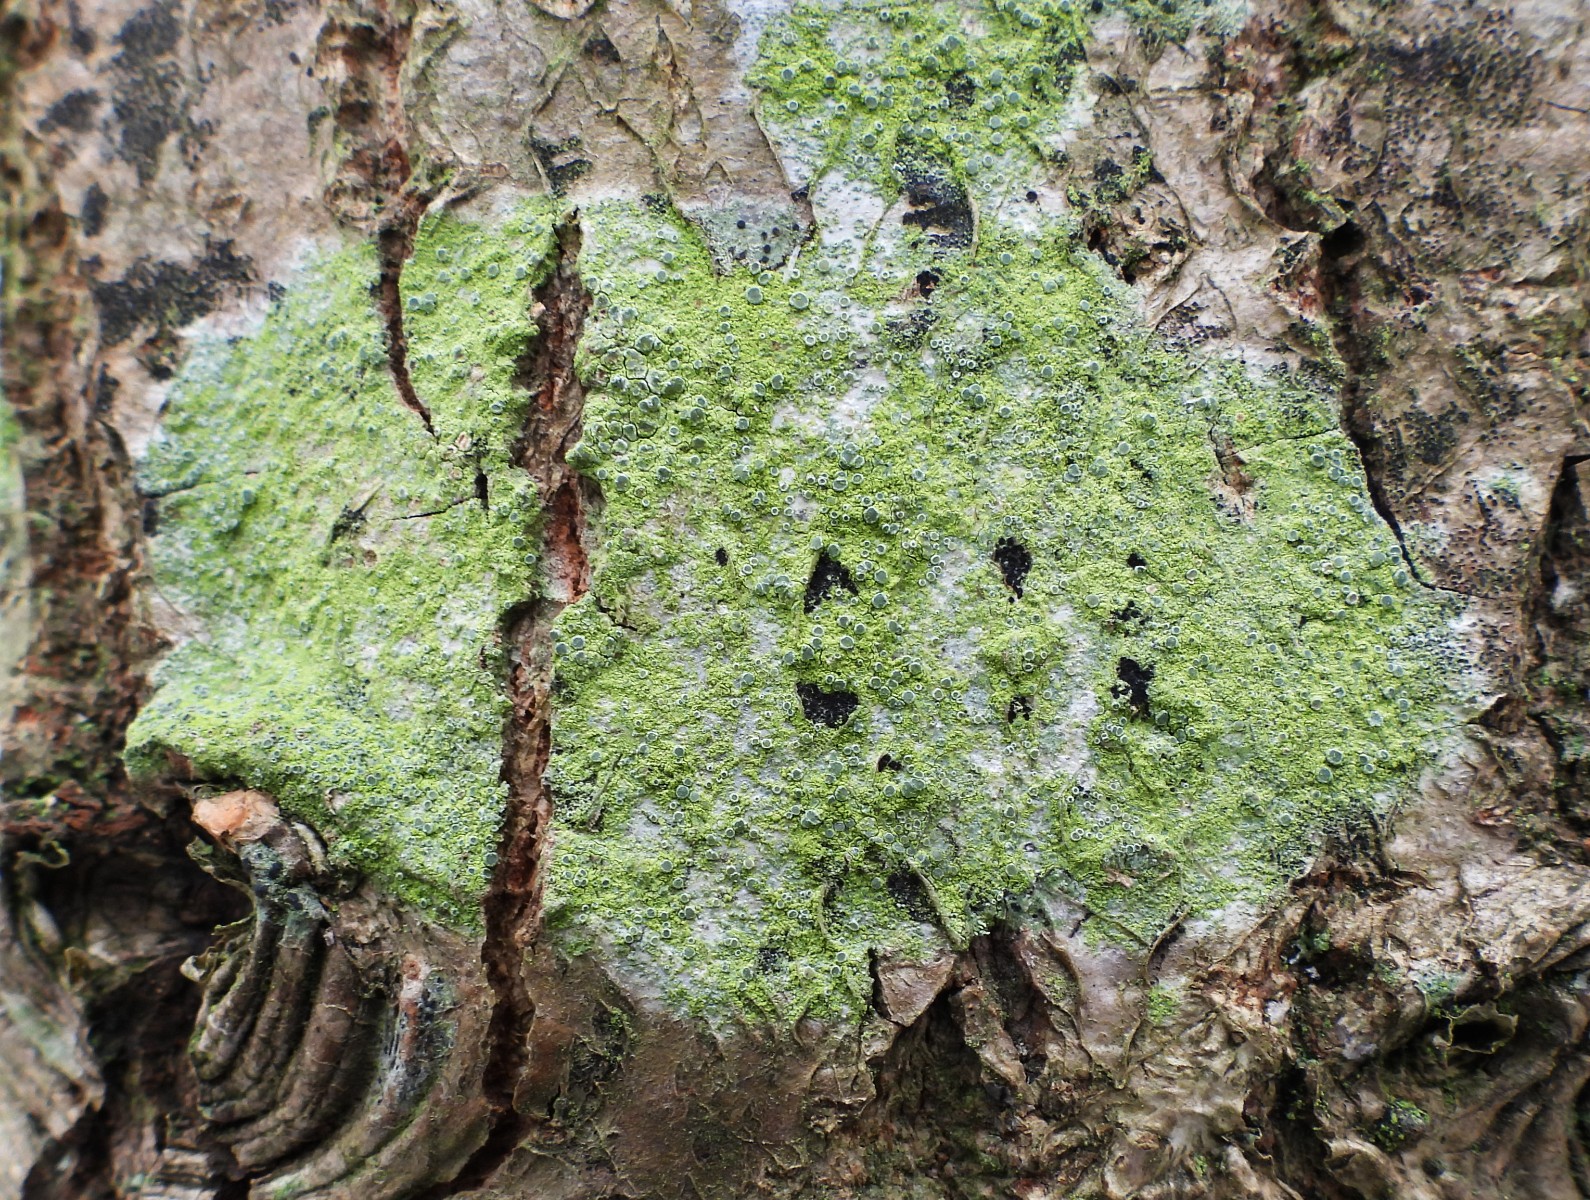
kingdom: Fungi
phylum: Ascomycota
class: Lecanoromycetes
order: Lecanorales
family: Lecanoraceae
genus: Glaucomaria
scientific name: Glaucomaria carpinea
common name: hviddugget kantskivelav
